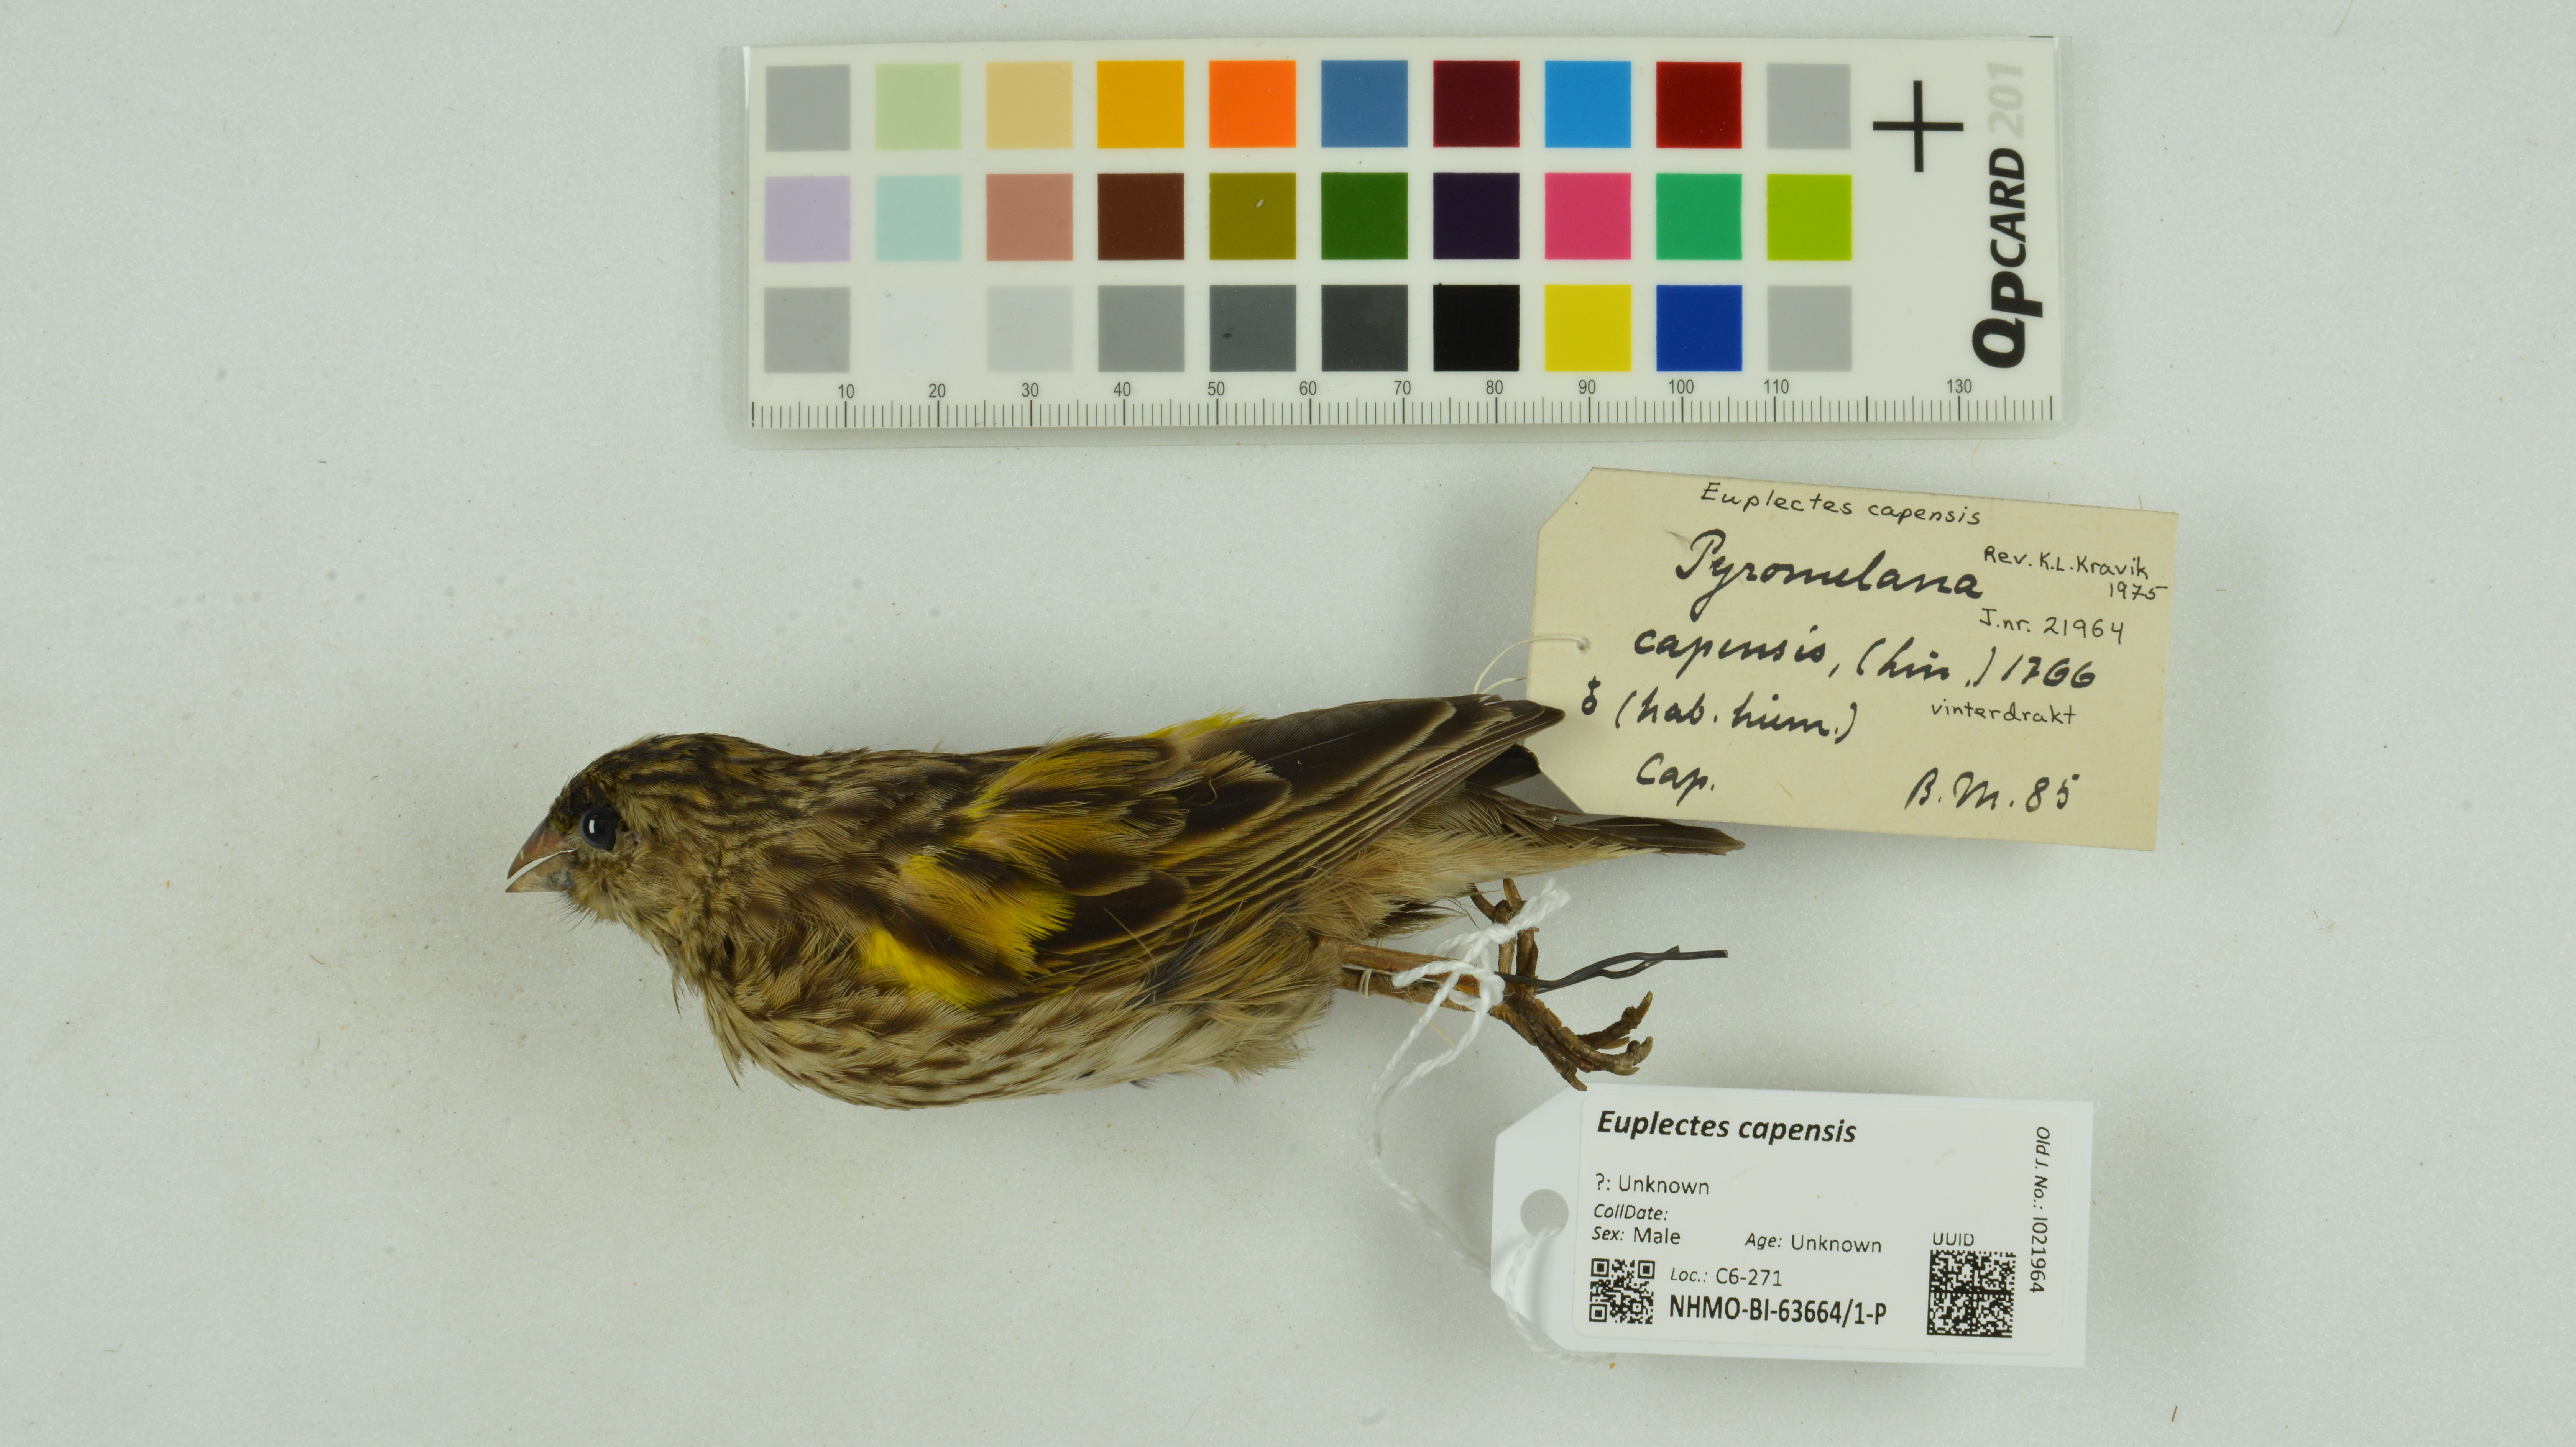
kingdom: Animalia
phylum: Chordata
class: Aves
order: Passeriformes
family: Ploceidae
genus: Euplectes
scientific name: Euplectes capensis
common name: Yellow bishop
